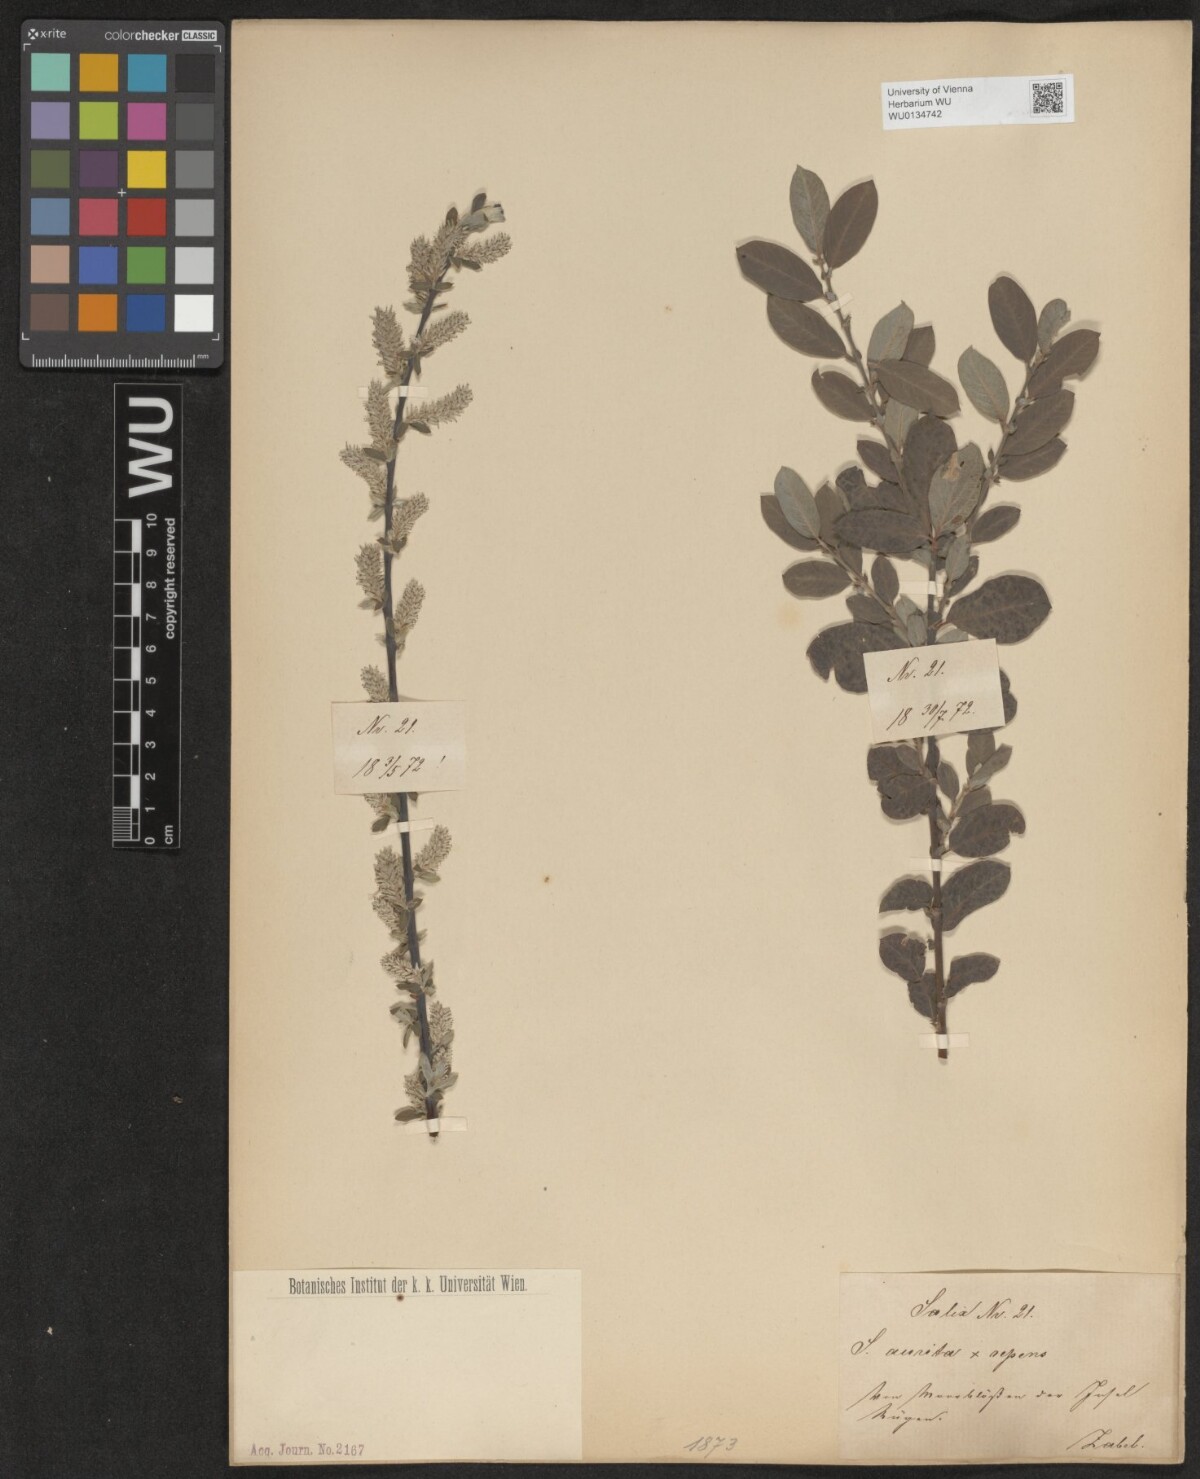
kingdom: Plantae
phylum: Tracheophyta
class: Magnoliopsida
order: Malpighiales
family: Salicaceae
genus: Salix
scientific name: Salix
